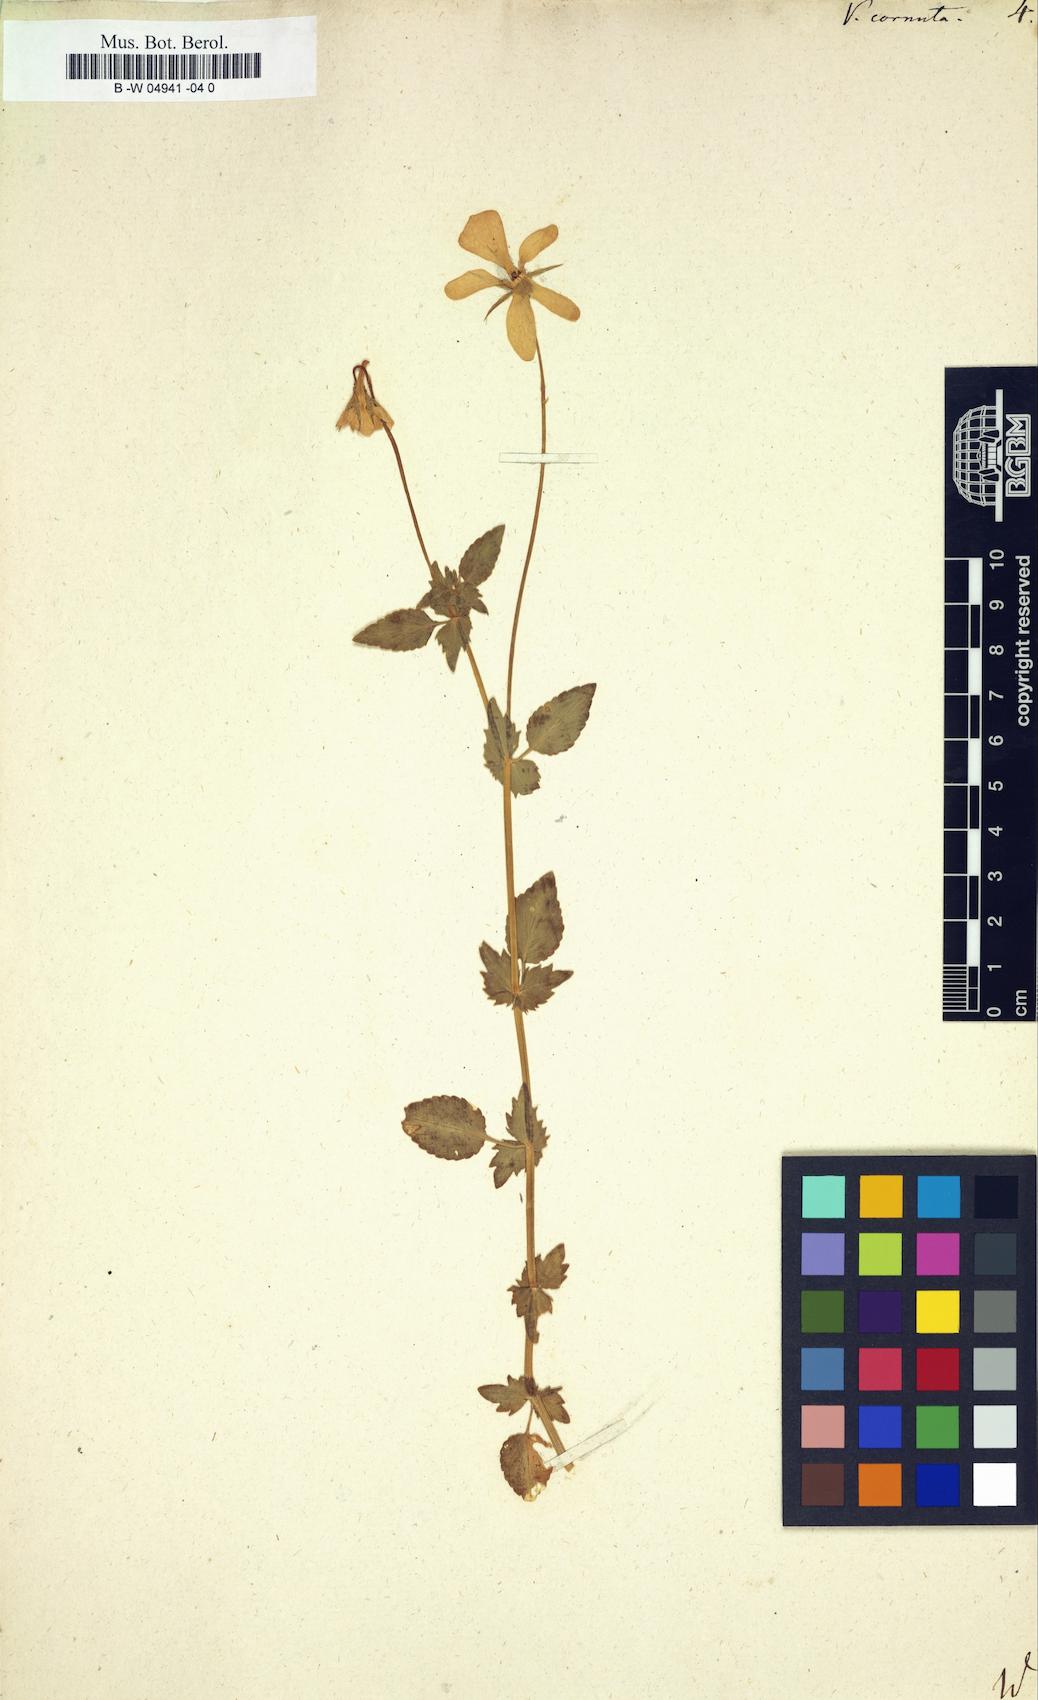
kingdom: Plantae
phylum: Tracheophyta
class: Magnoliopsida
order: Malpighiales
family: Violaceae
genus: Viola
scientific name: Viola cornuta
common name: Horned pansy
